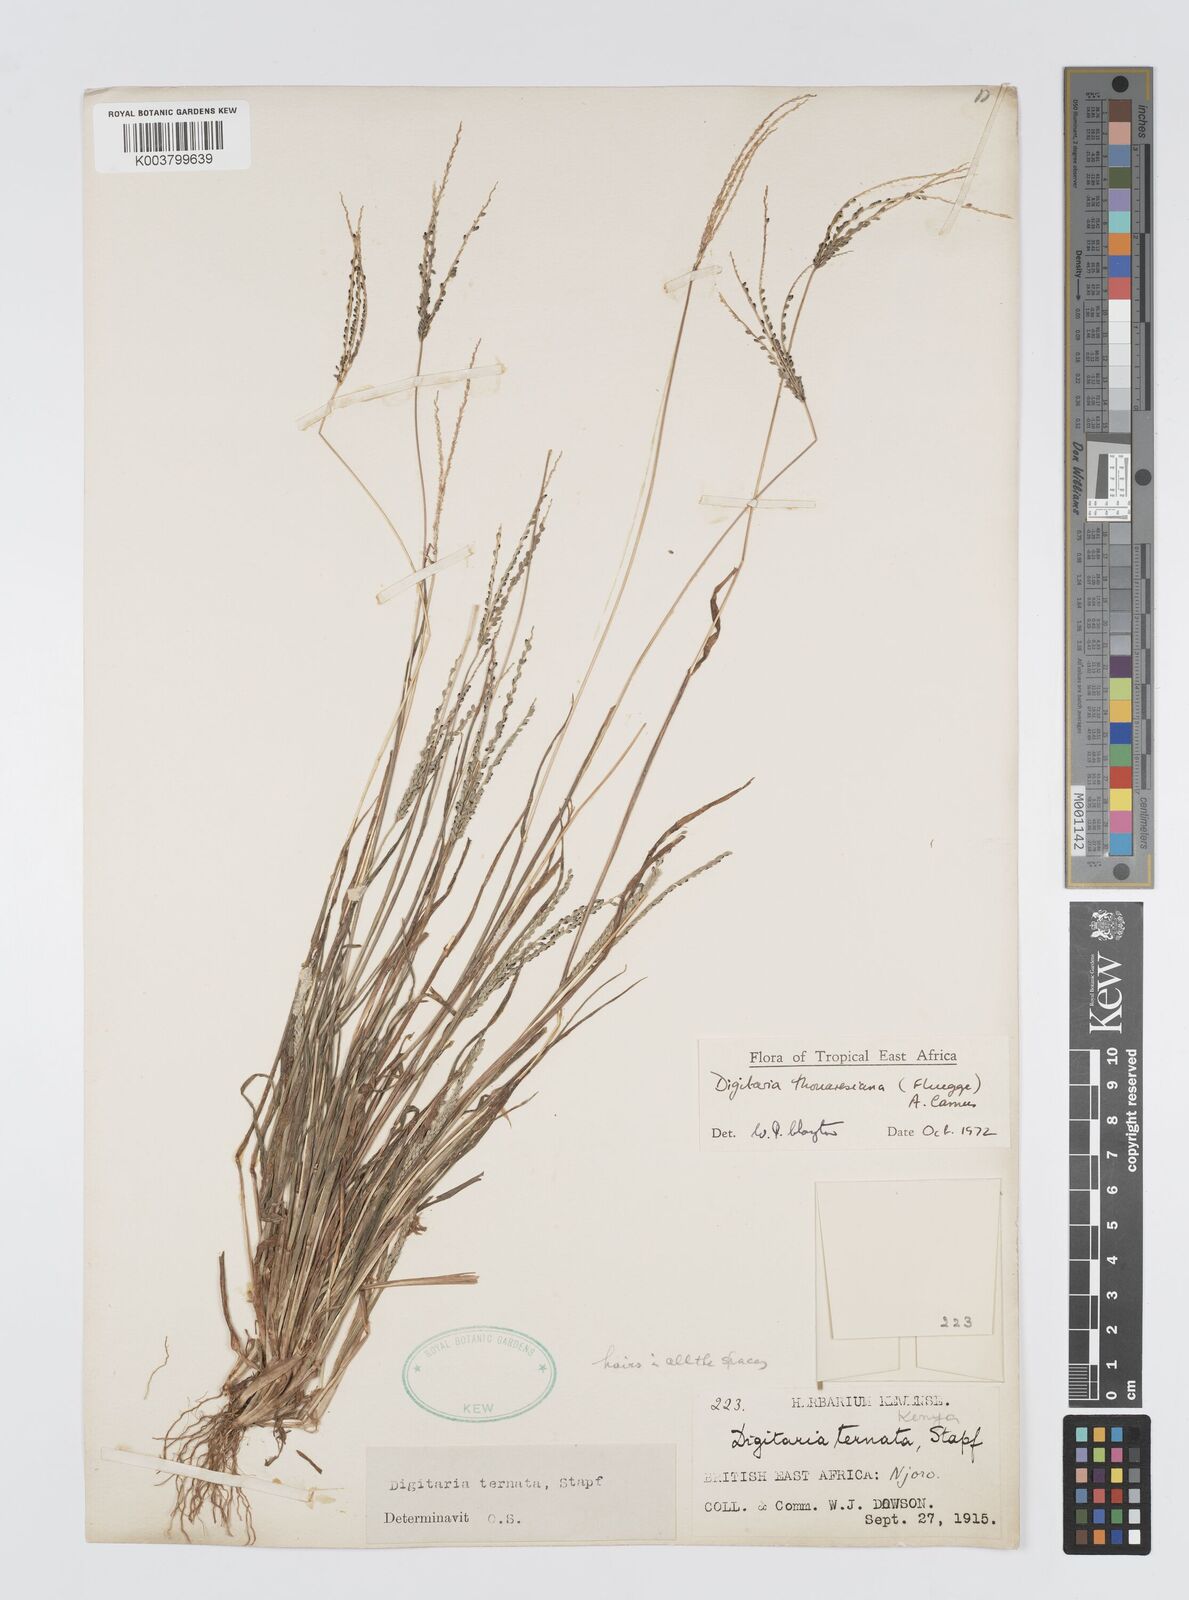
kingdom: Plantae
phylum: Tracheophyta
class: Liliopsida
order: Poales
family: Poaceae
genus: Digitaria
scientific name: Digitaria thouarsiana
